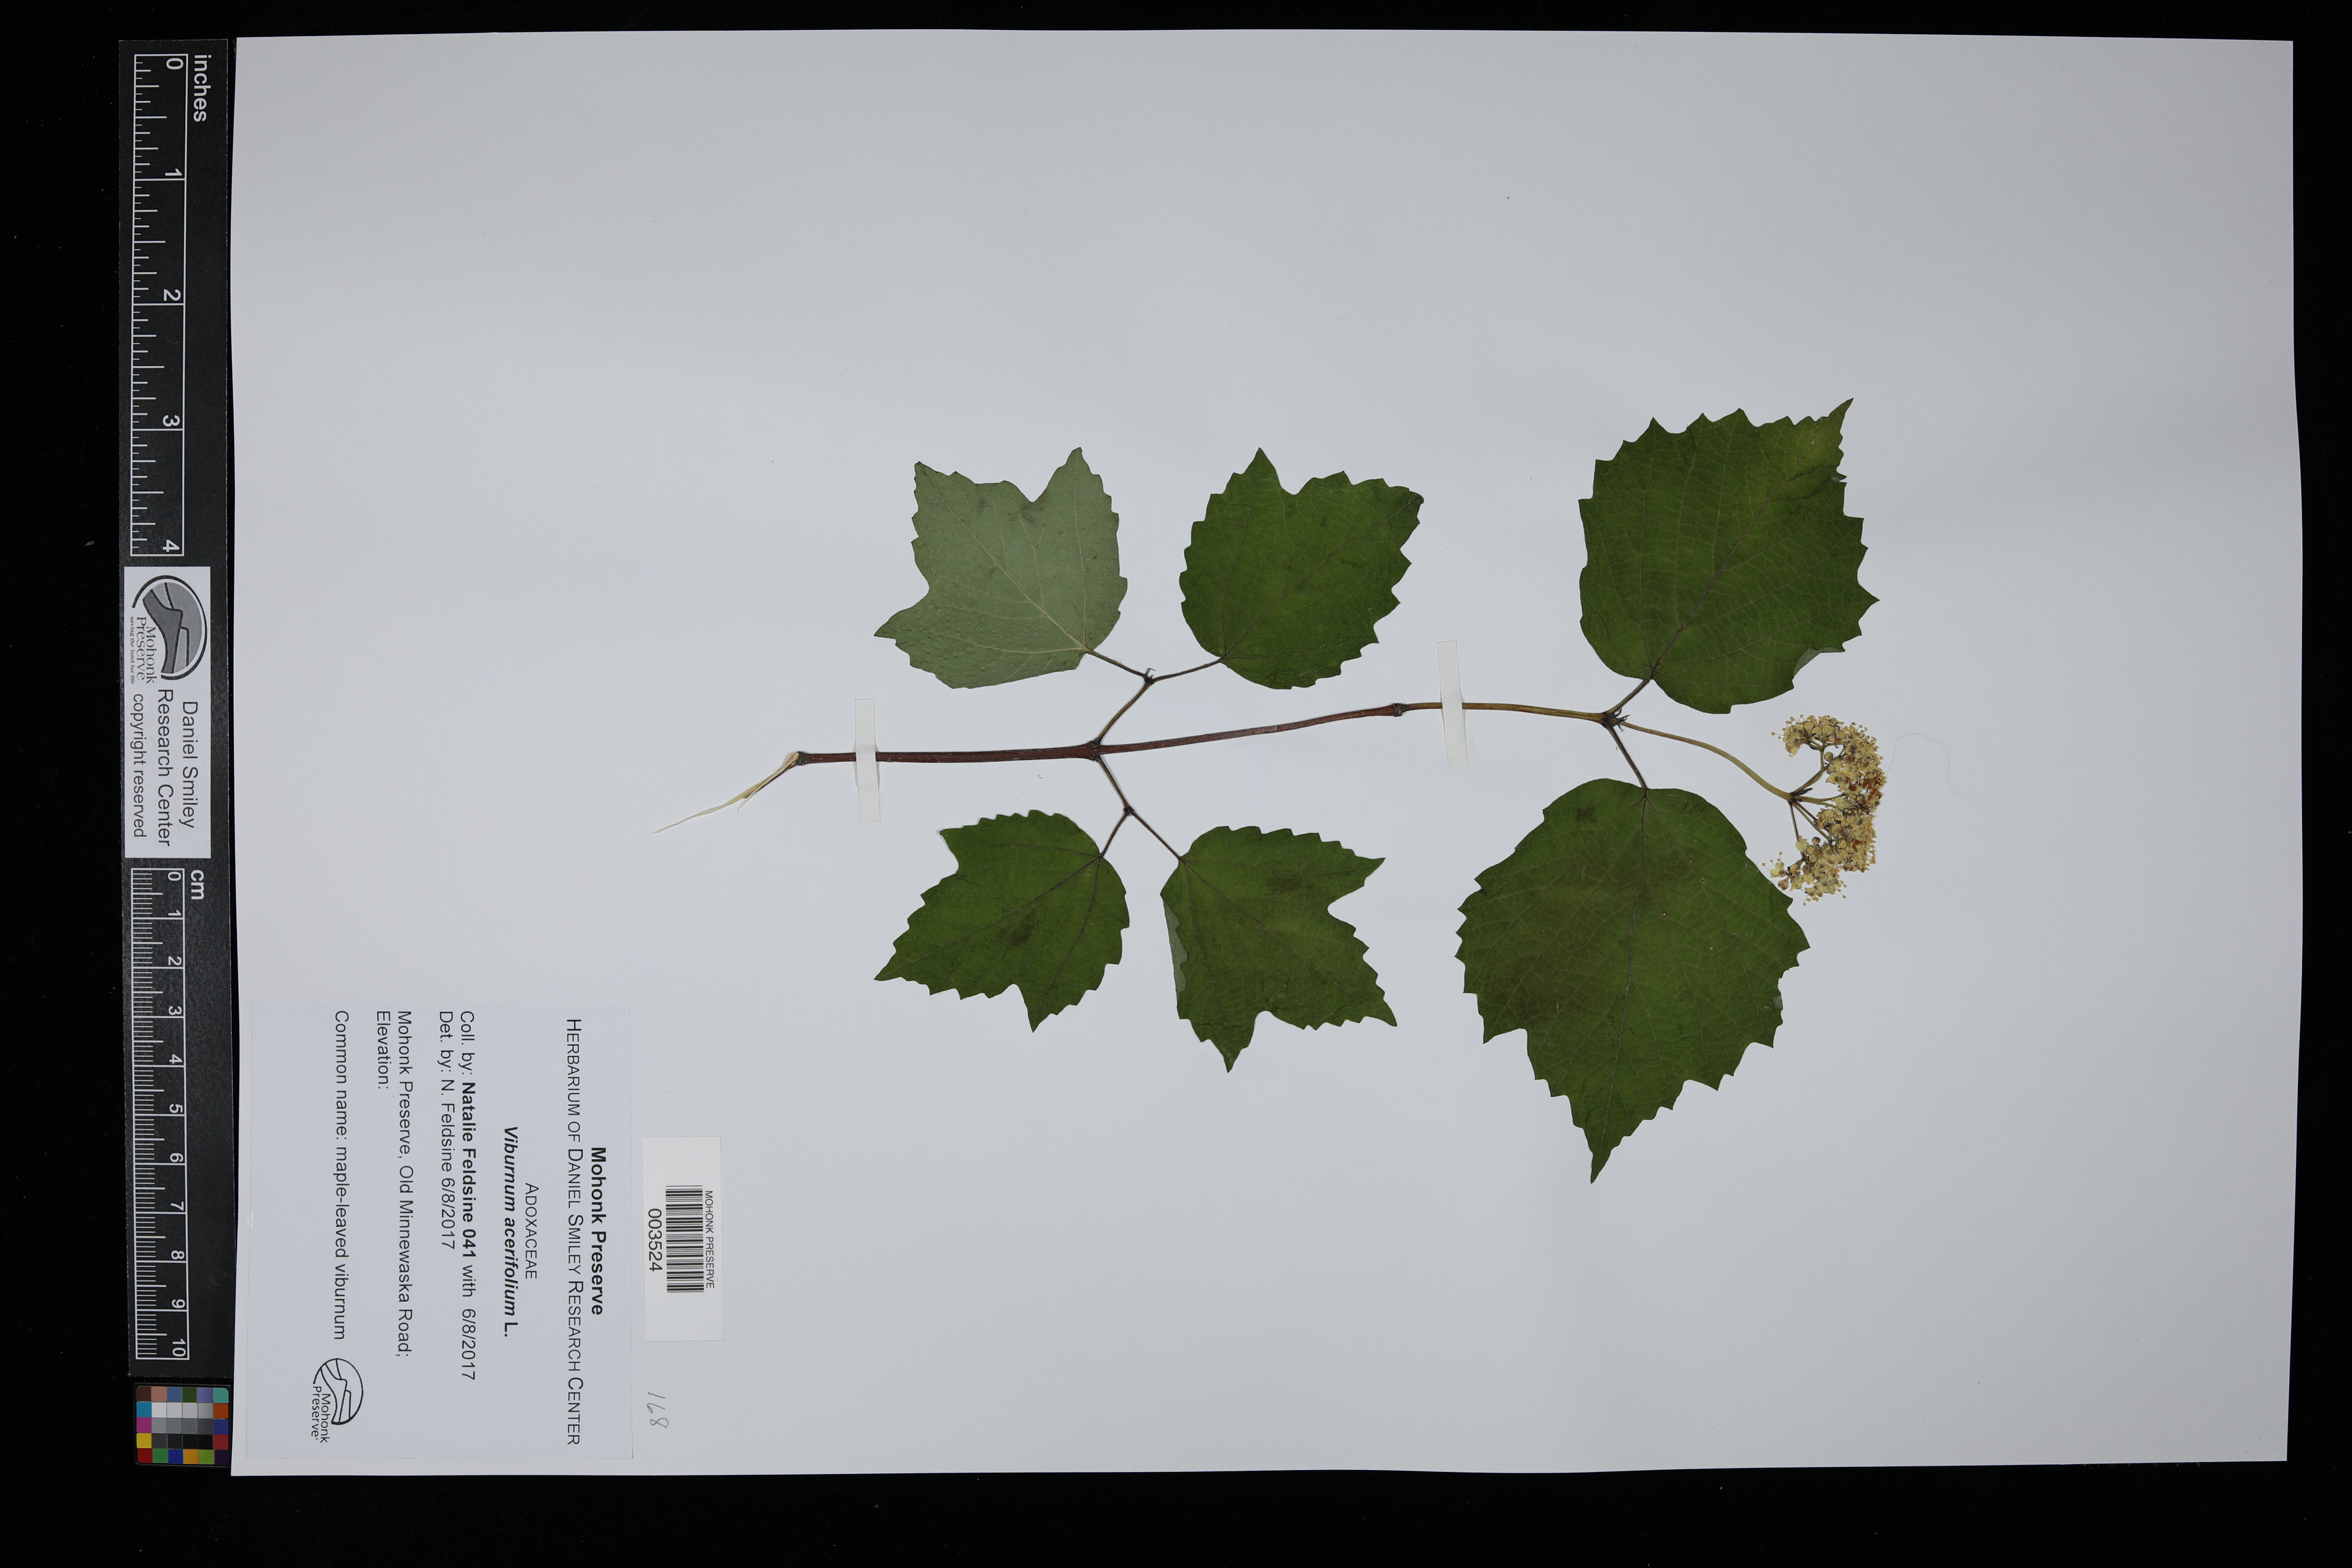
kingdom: Plantae
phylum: Tracheophyta
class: Magnoliopsida
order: Dipsacales
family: Viburnaceae
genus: Viburnum
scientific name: Viburnum acerifolium
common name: Dockmackie
